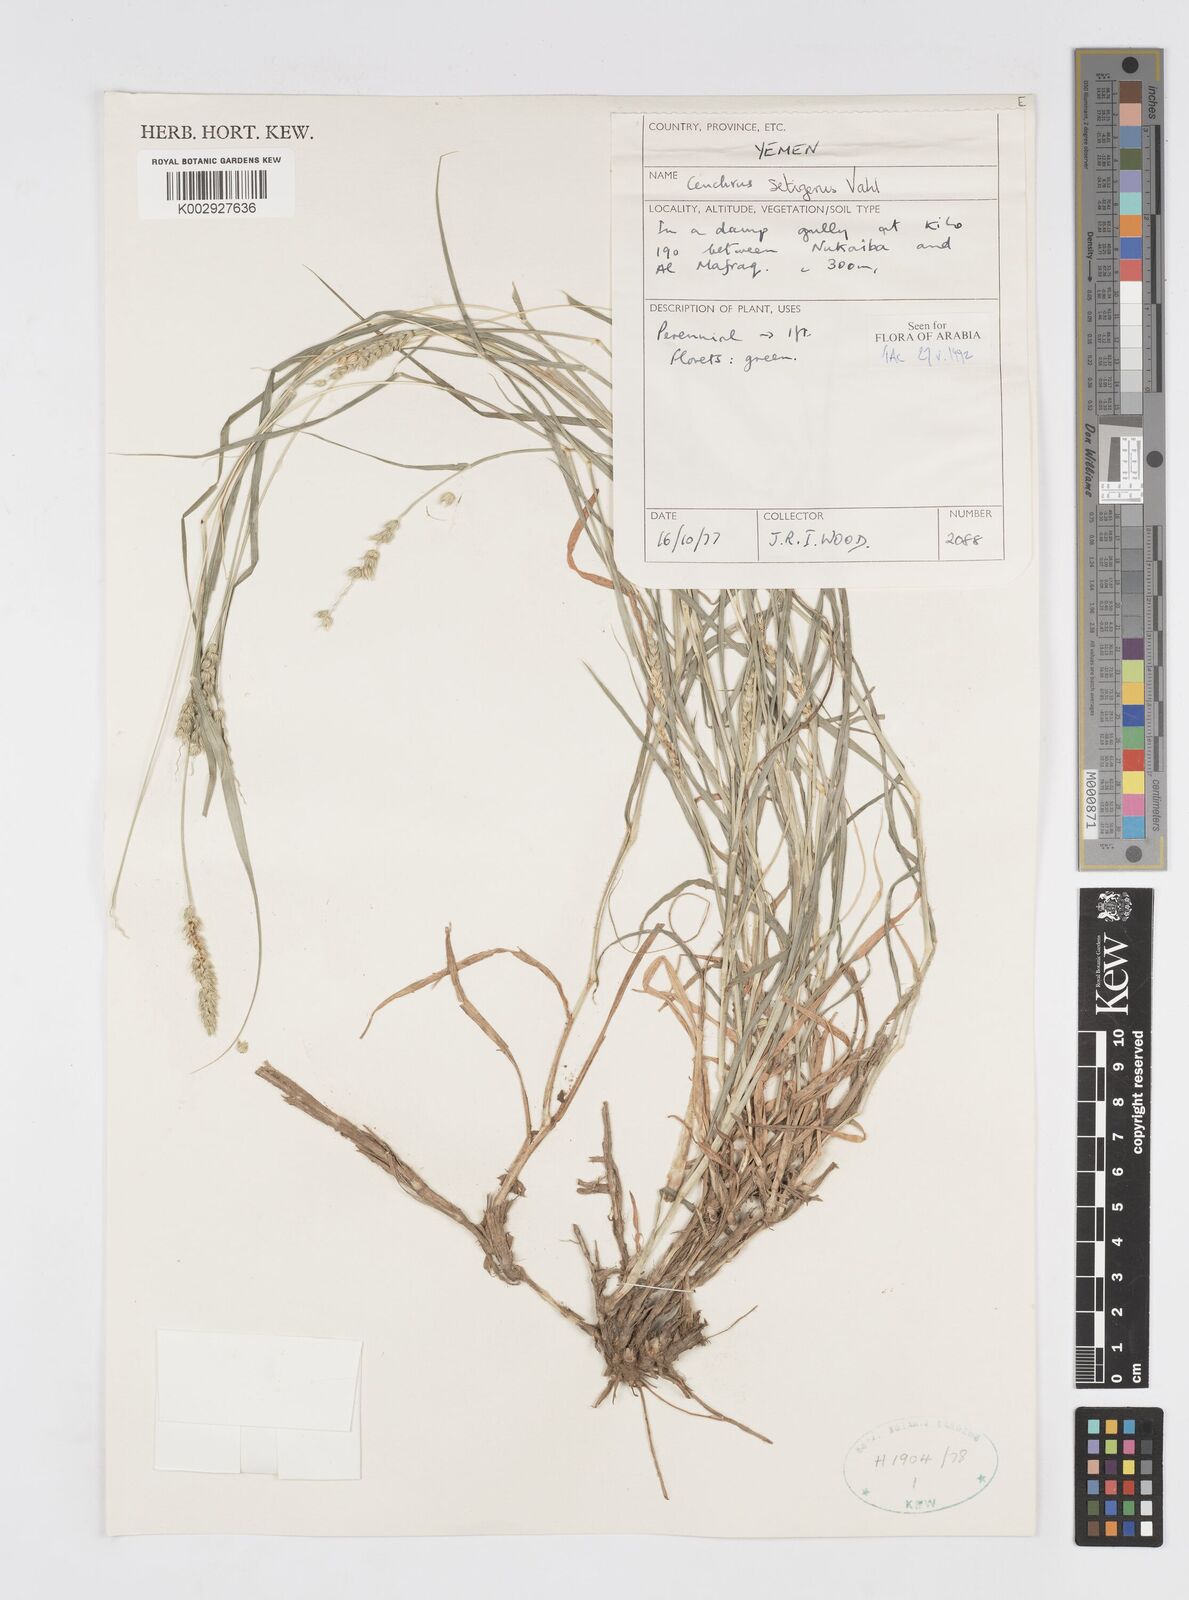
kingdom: Plantae
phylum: Tracheophyta
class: Liliopsida
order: Poales
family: Poaceae
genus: Cenchrus
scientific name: Cenchrus setigerus
